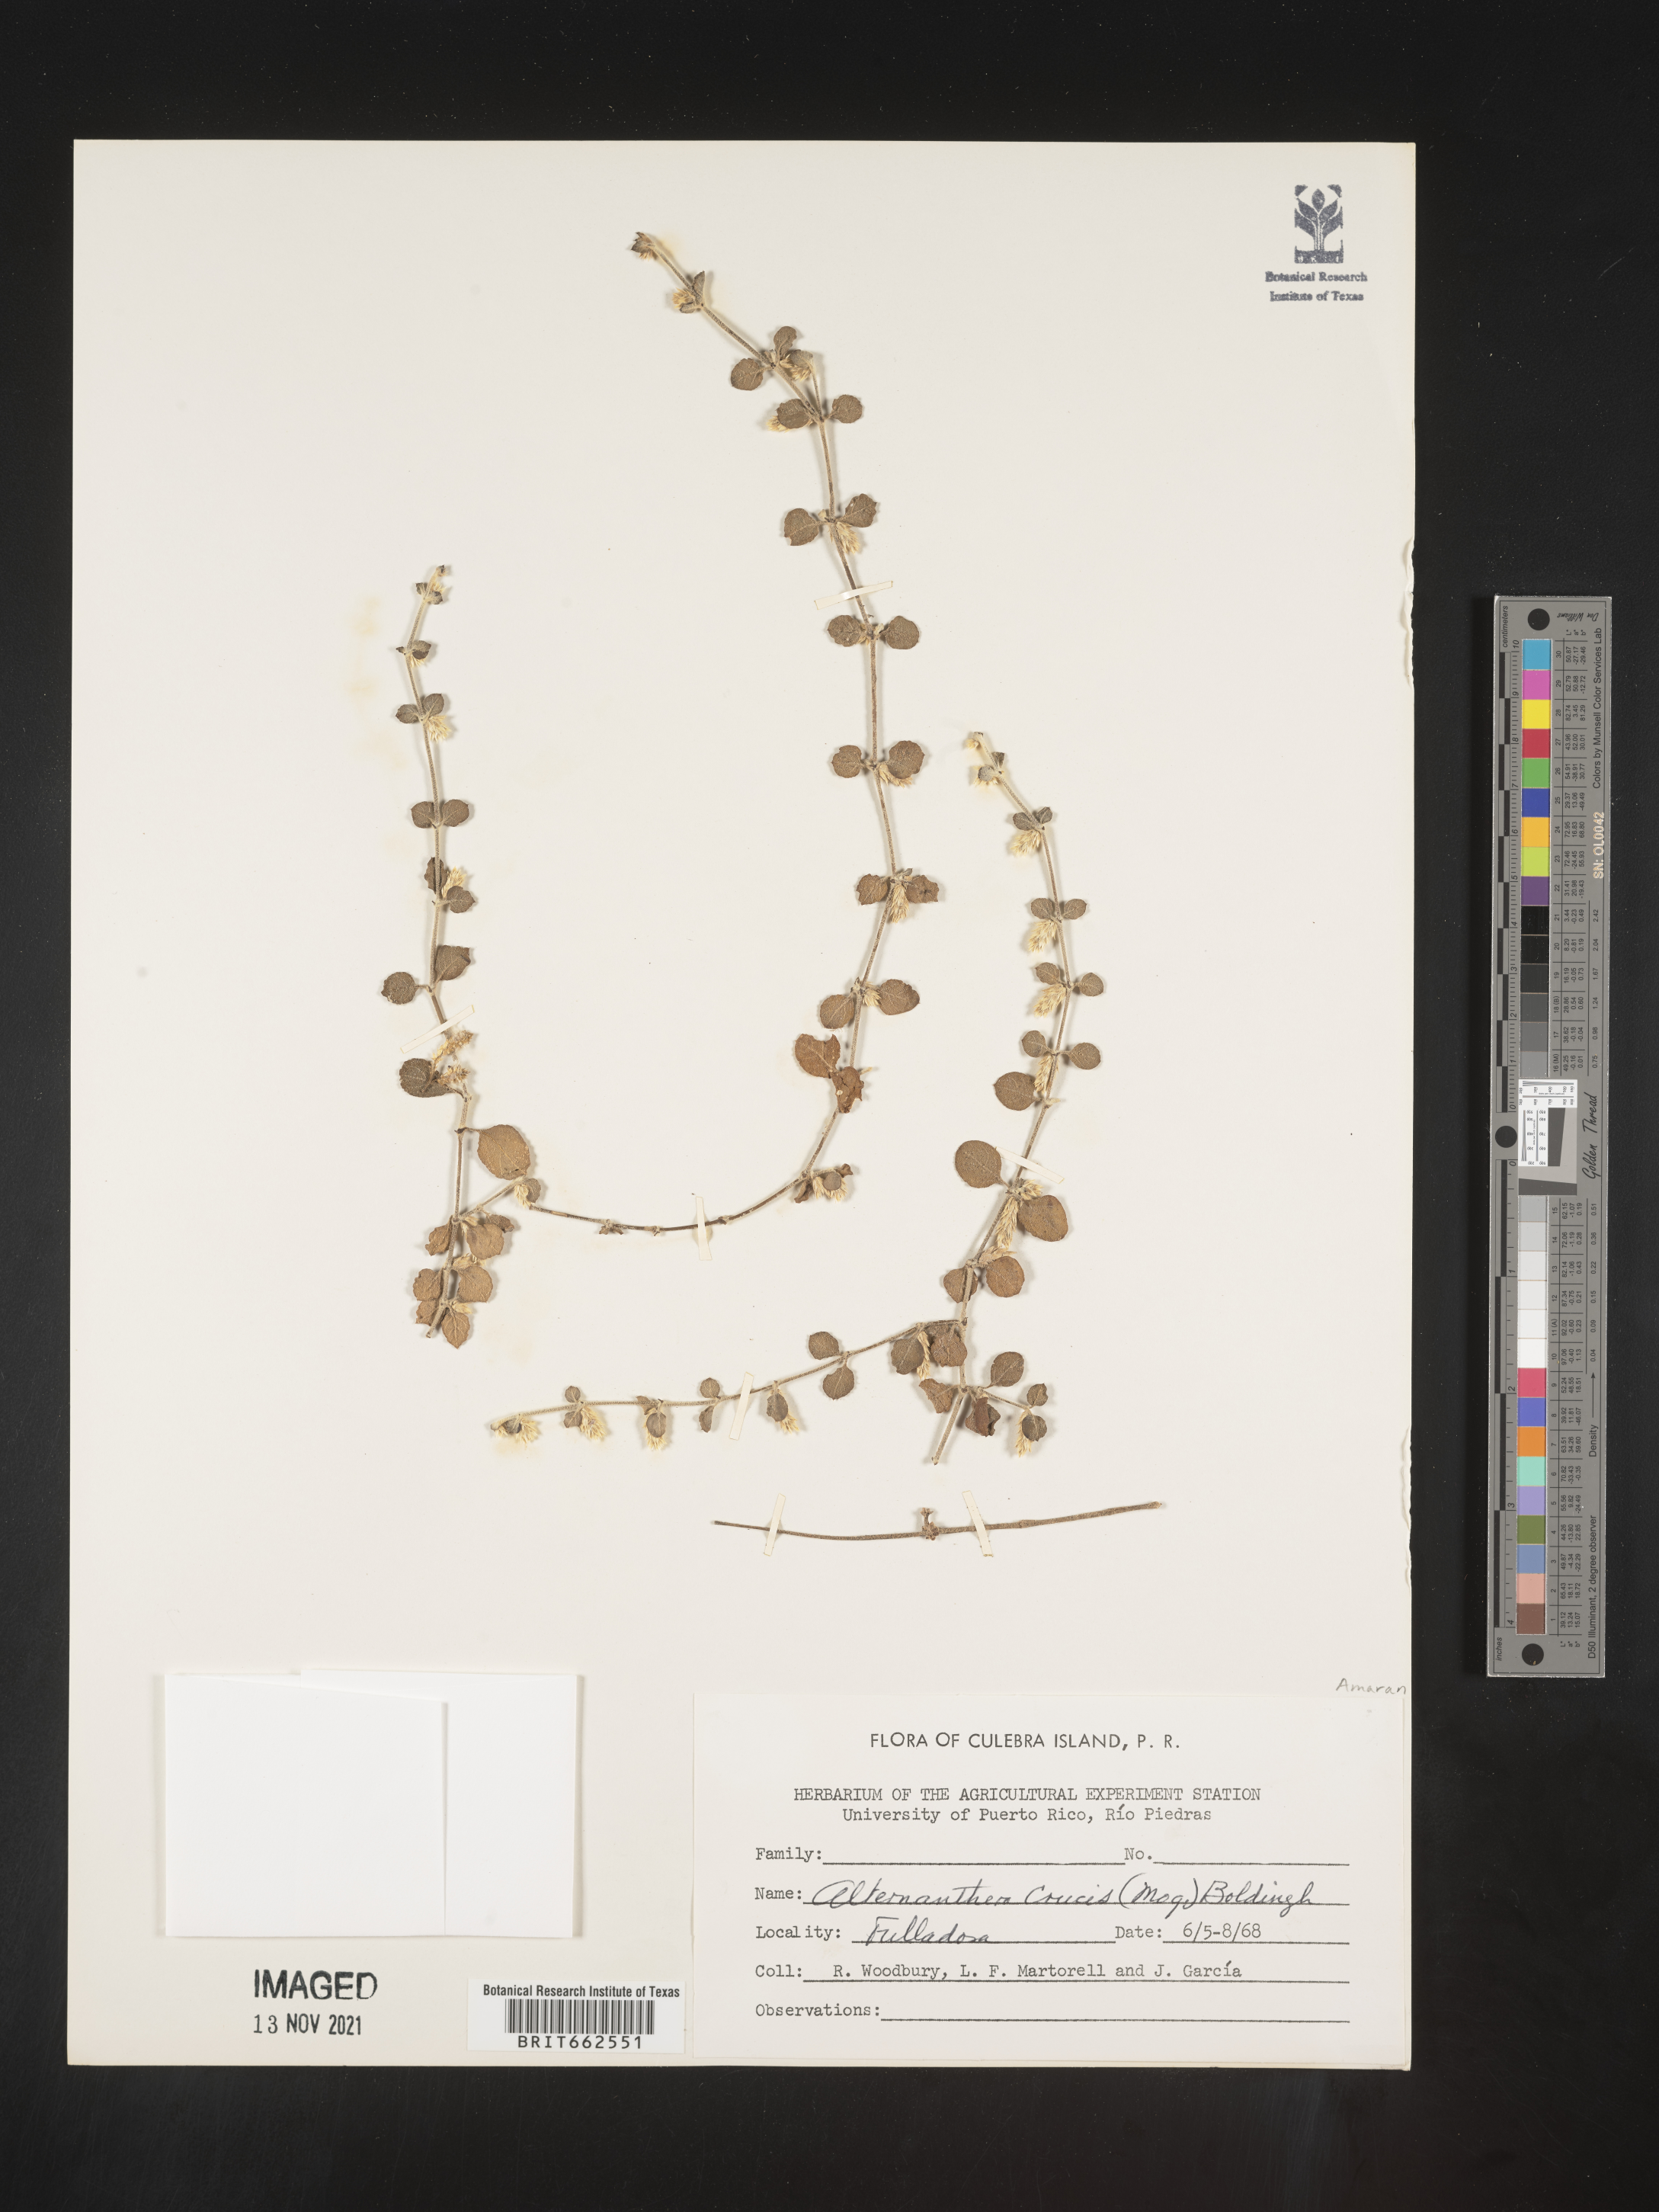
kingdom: Plantae
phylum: Tracheophyta
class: Magnoliopsida
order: Caryophyllales
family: Amaranthaceae
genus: Alternanthera
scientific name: Alternanthera
